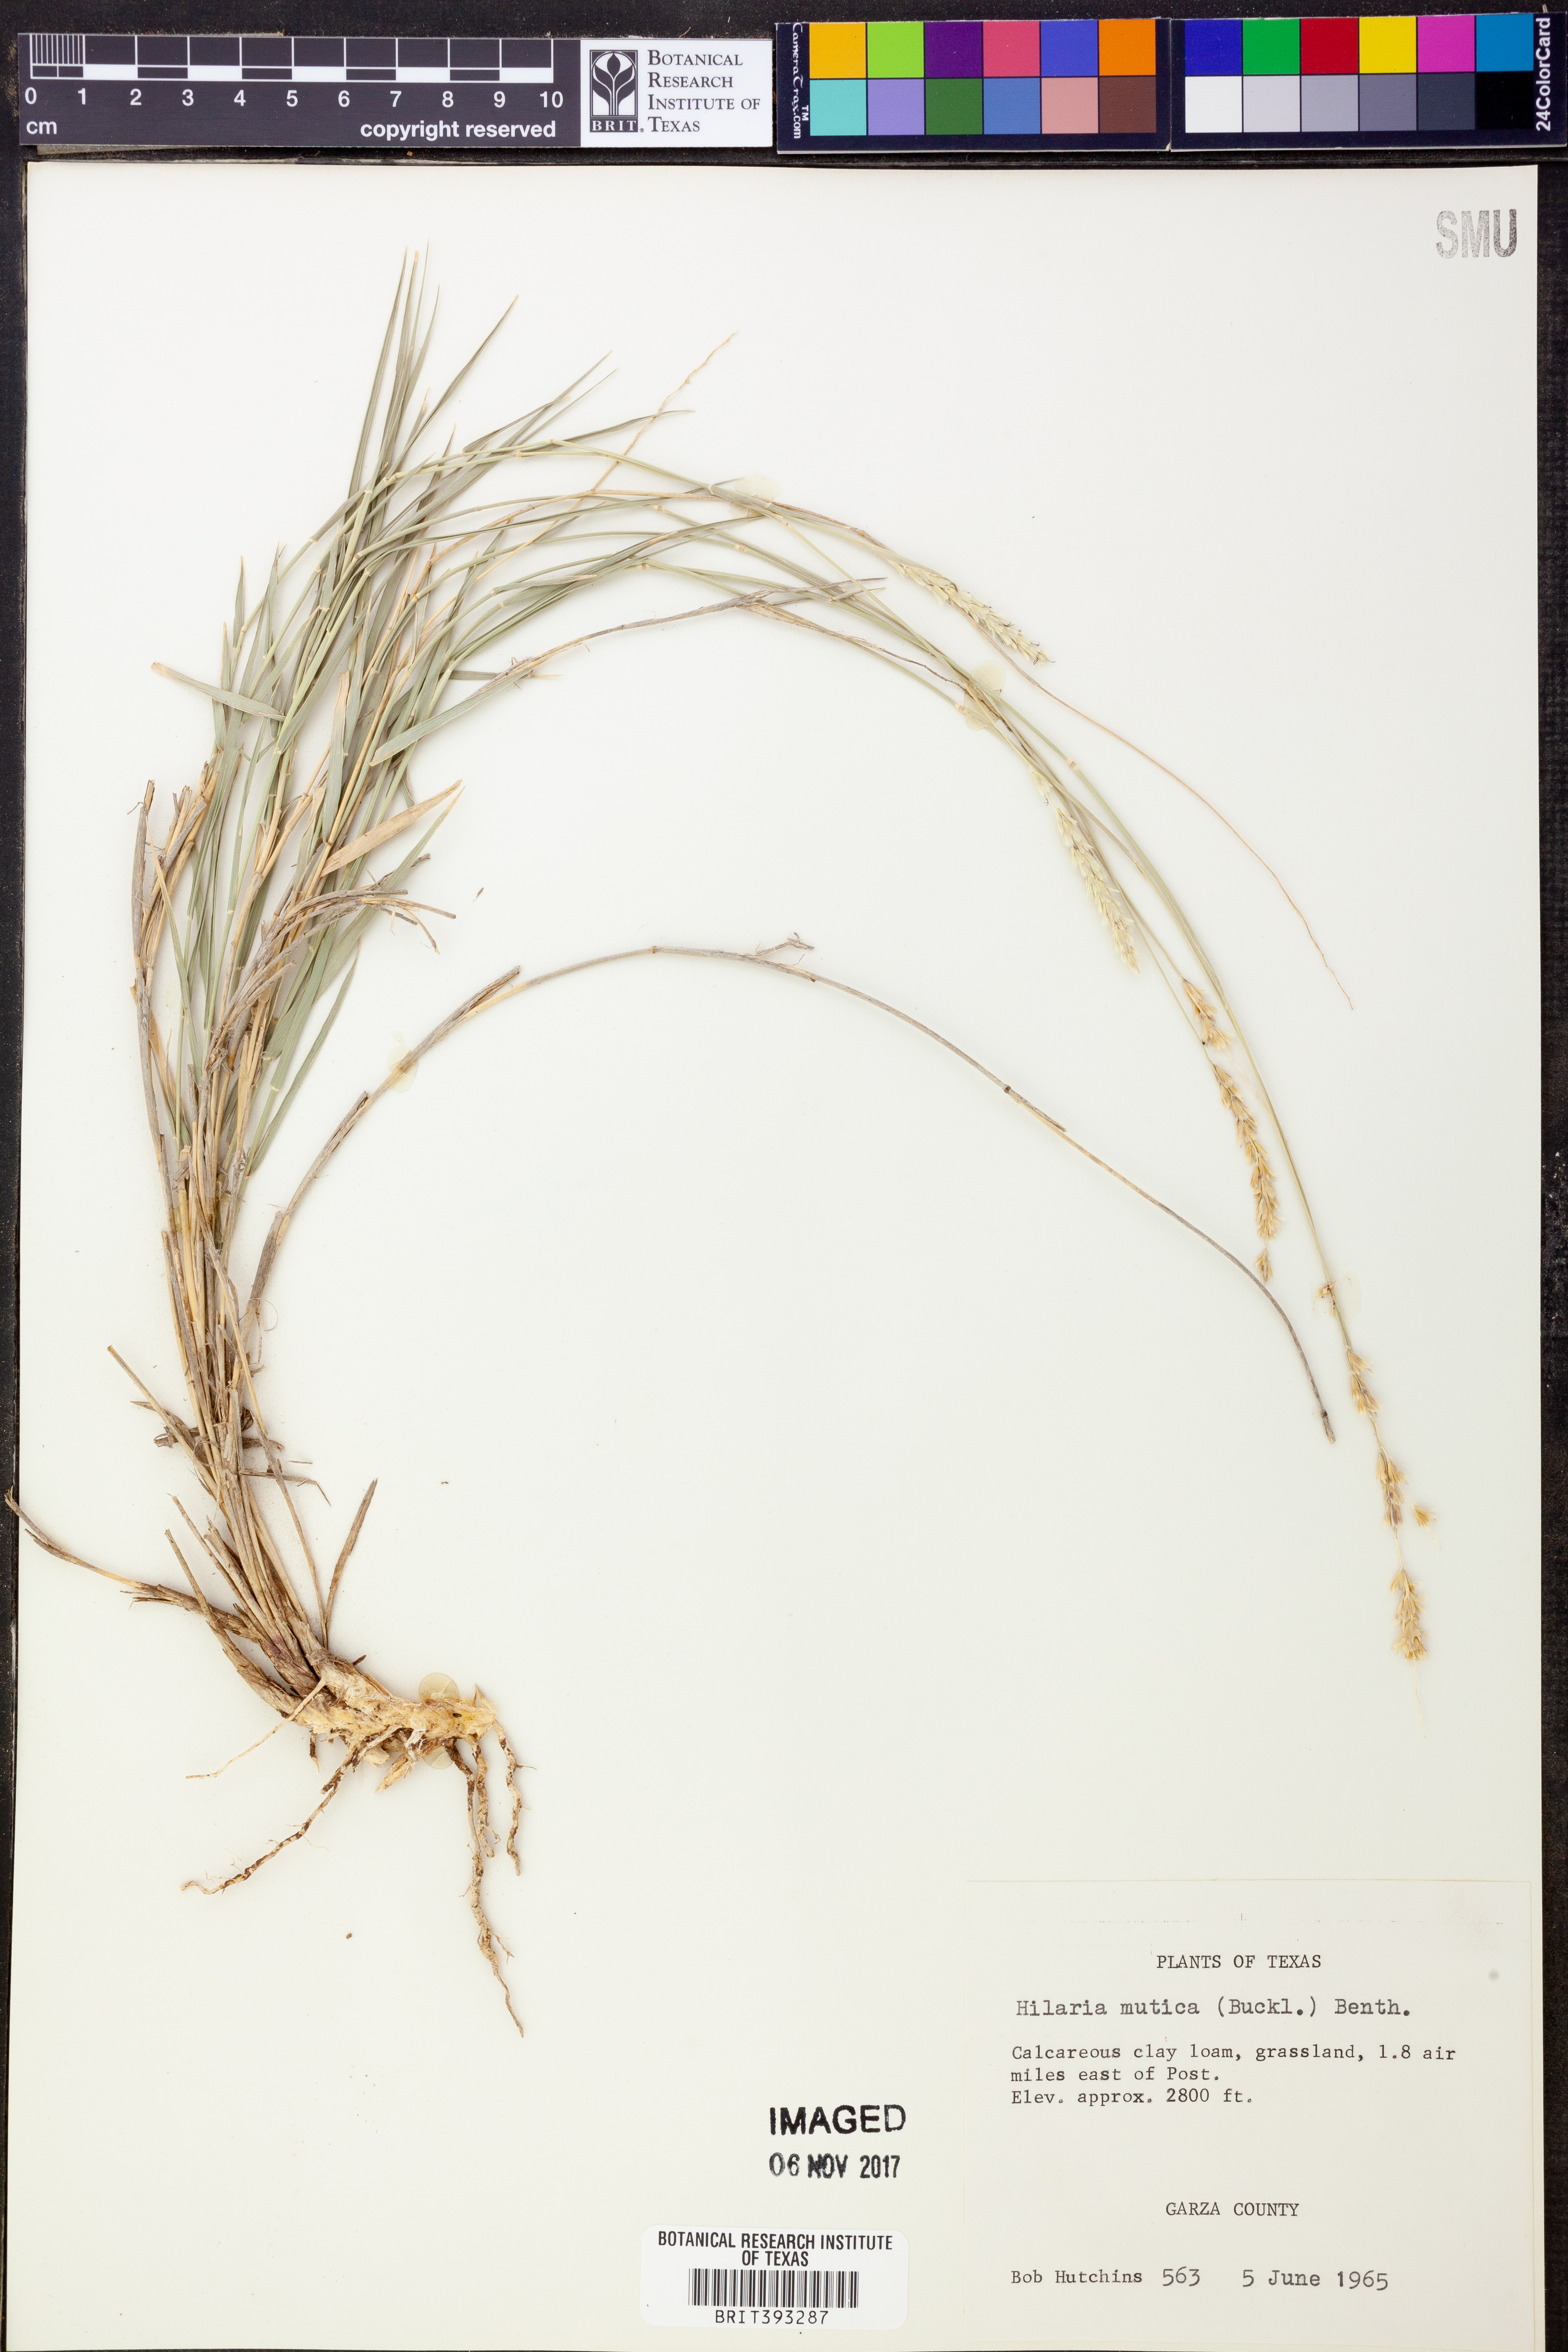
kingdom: Plantae
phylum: Tracheophyta
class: Liliopsida
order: Poales
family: Poaceae
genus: Hilaria
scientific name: Hilaria mutica
